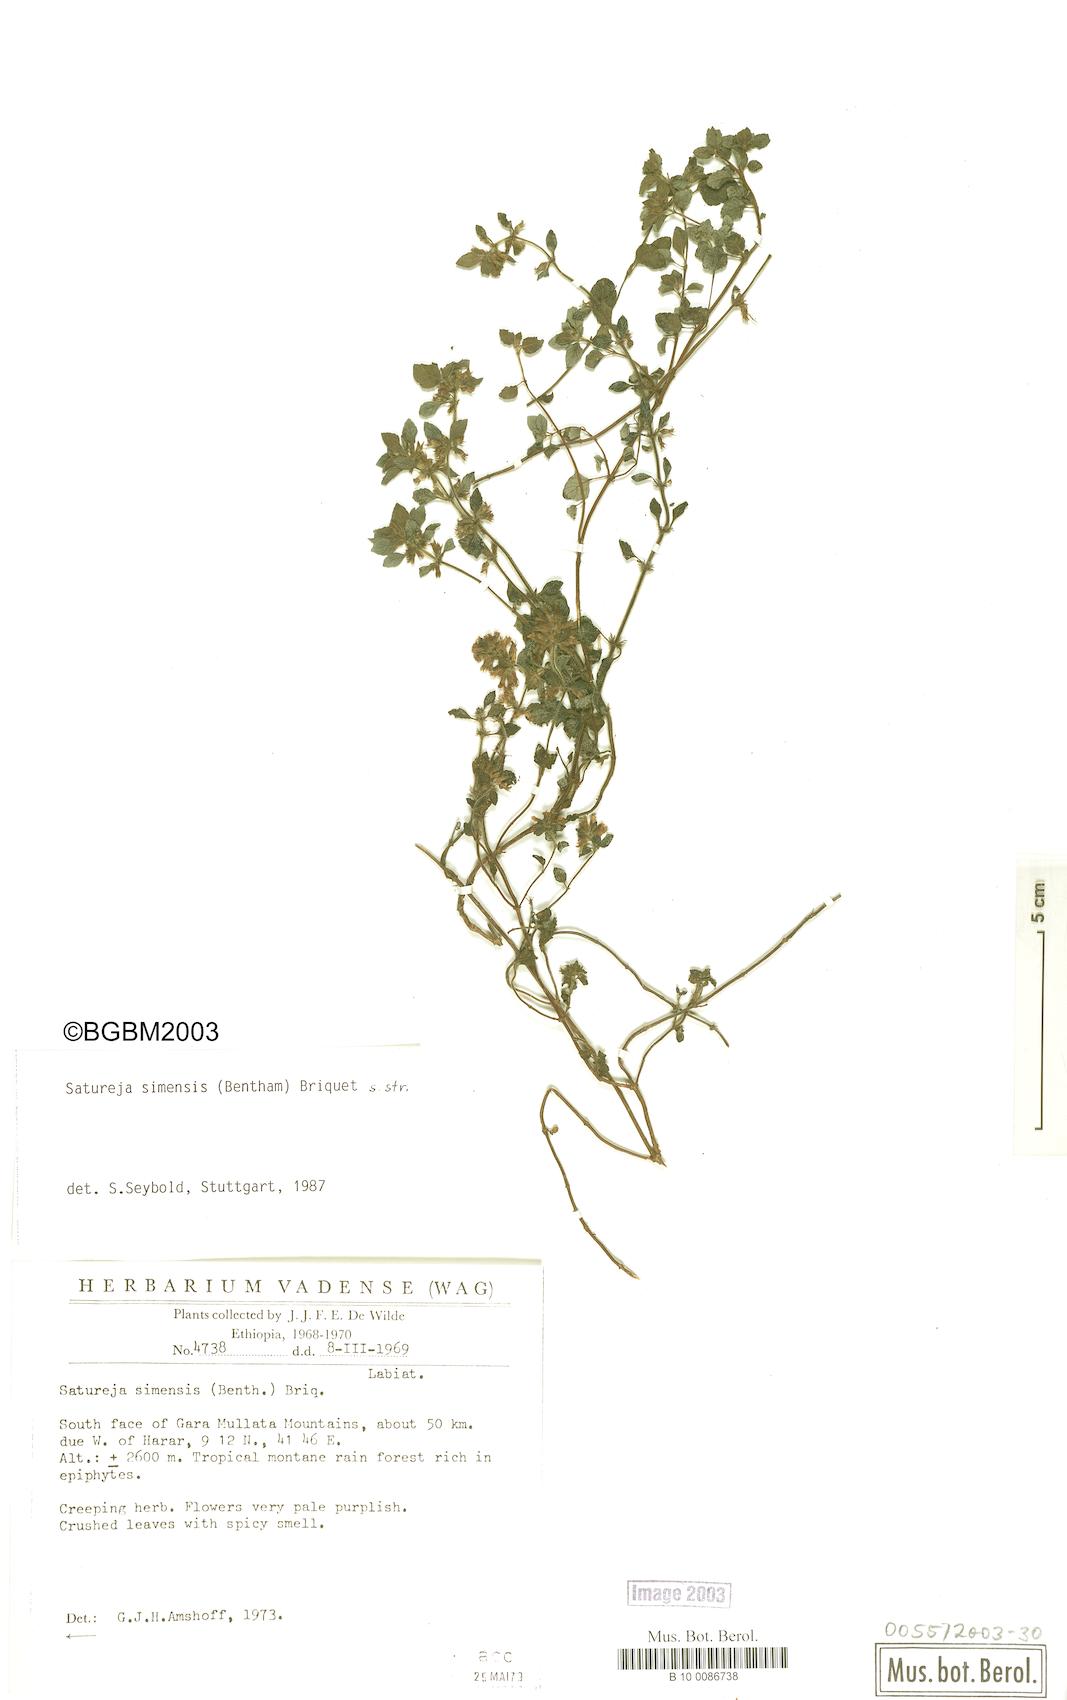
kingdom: Plantae
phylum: Tracheophyta
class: Magnoliopsida
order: Lamiales
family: Lamiaceae
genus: Clinopodium
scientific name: Clinopodium simense
